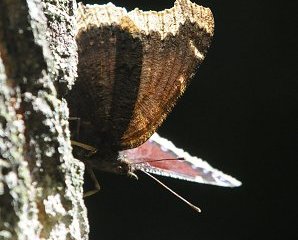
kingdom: Animalia
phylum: Arthropoda
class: Insecta
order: Lepidoptera
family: Nymphalidae
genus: Nymphalis
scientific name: Nymphalis antiopa
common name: Mourning Cloak
